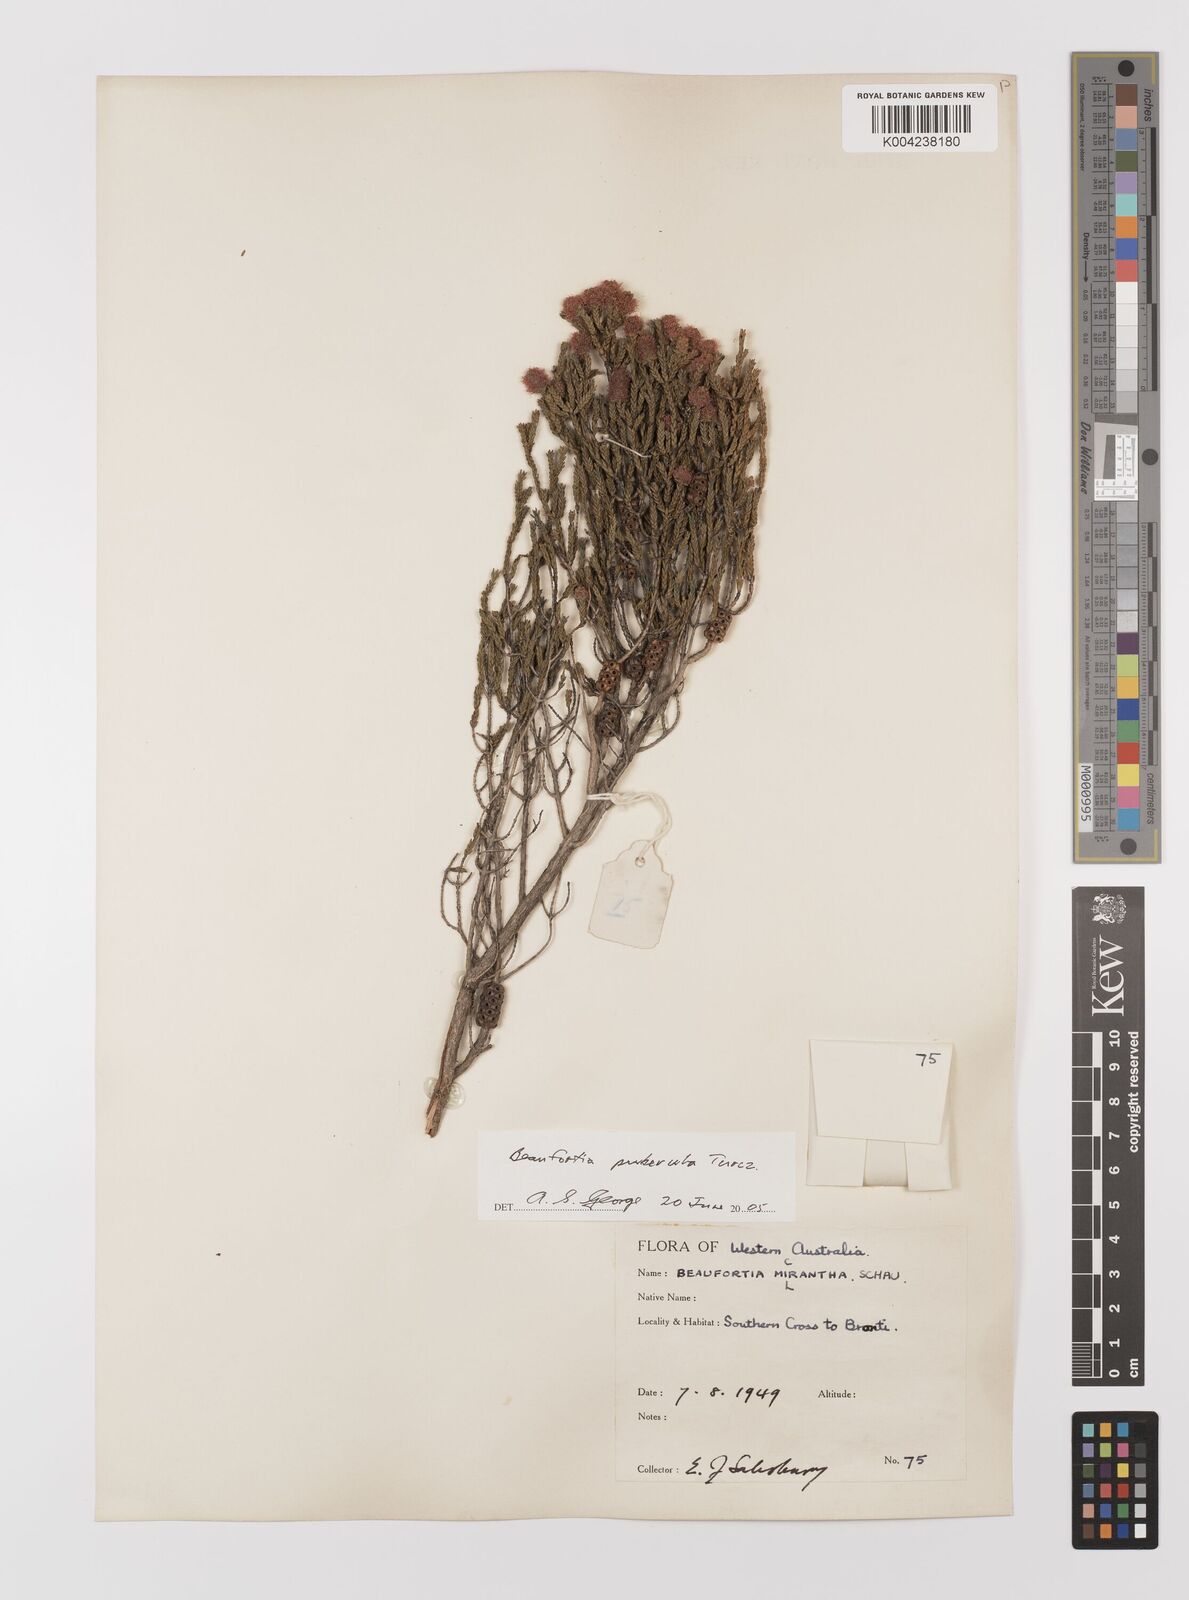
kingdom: Plantae
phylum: Tracheophyta
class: Magnoliopsida
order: Myrtales
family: Myrtaceae
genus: Melaleuca
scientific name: Melaleuca micrantha
